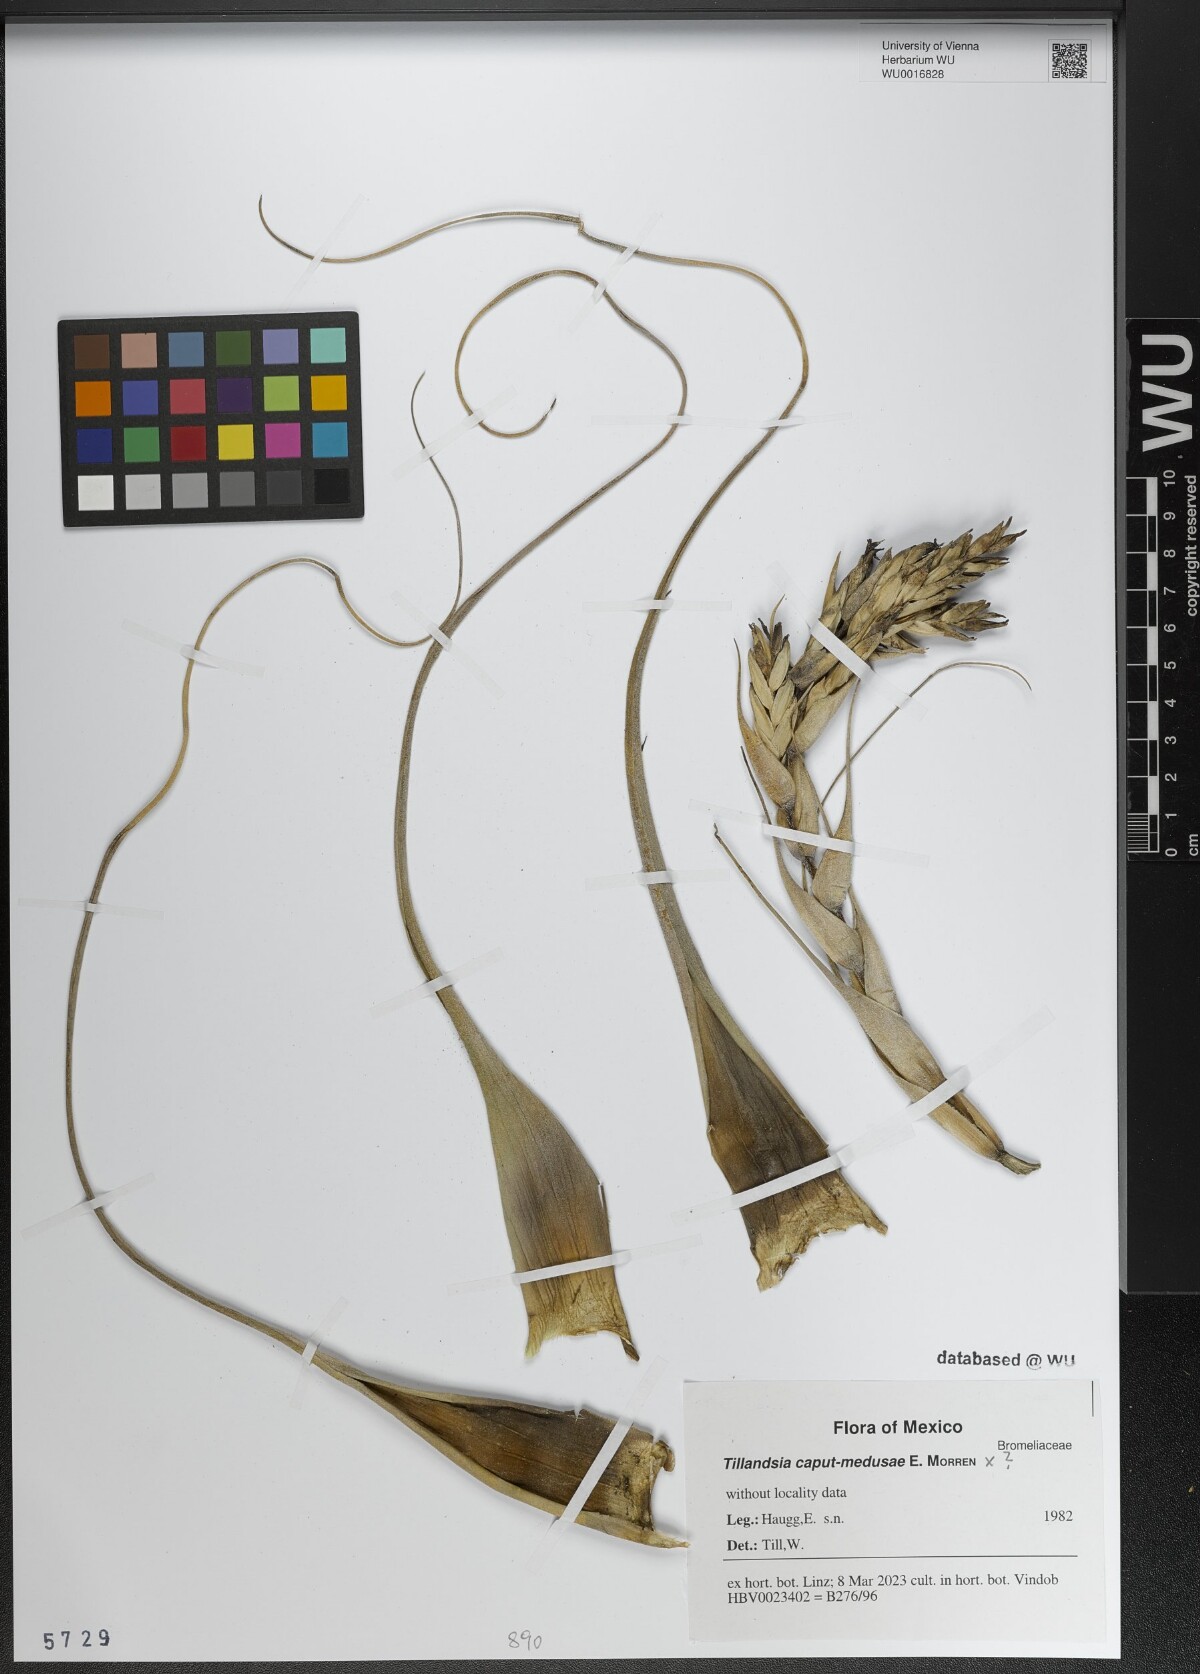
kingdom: Plantae
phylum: Tracheophyta
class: Liliopsida
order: Poales
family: Bromeliaceae
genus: Tillandsia
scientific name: Tillandsia caput-medusae
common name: Octopus plant
